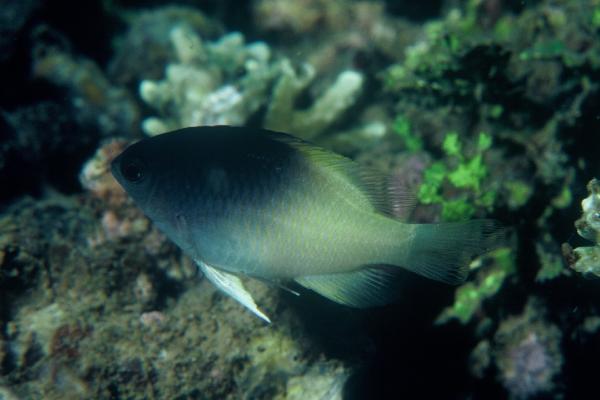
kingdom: Animalia
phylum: Chordata
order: Perciformes
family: Pomacentridae
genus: Chrysiptera
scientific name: Chrysiptera rollandi
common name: Rolland's demoiselle
